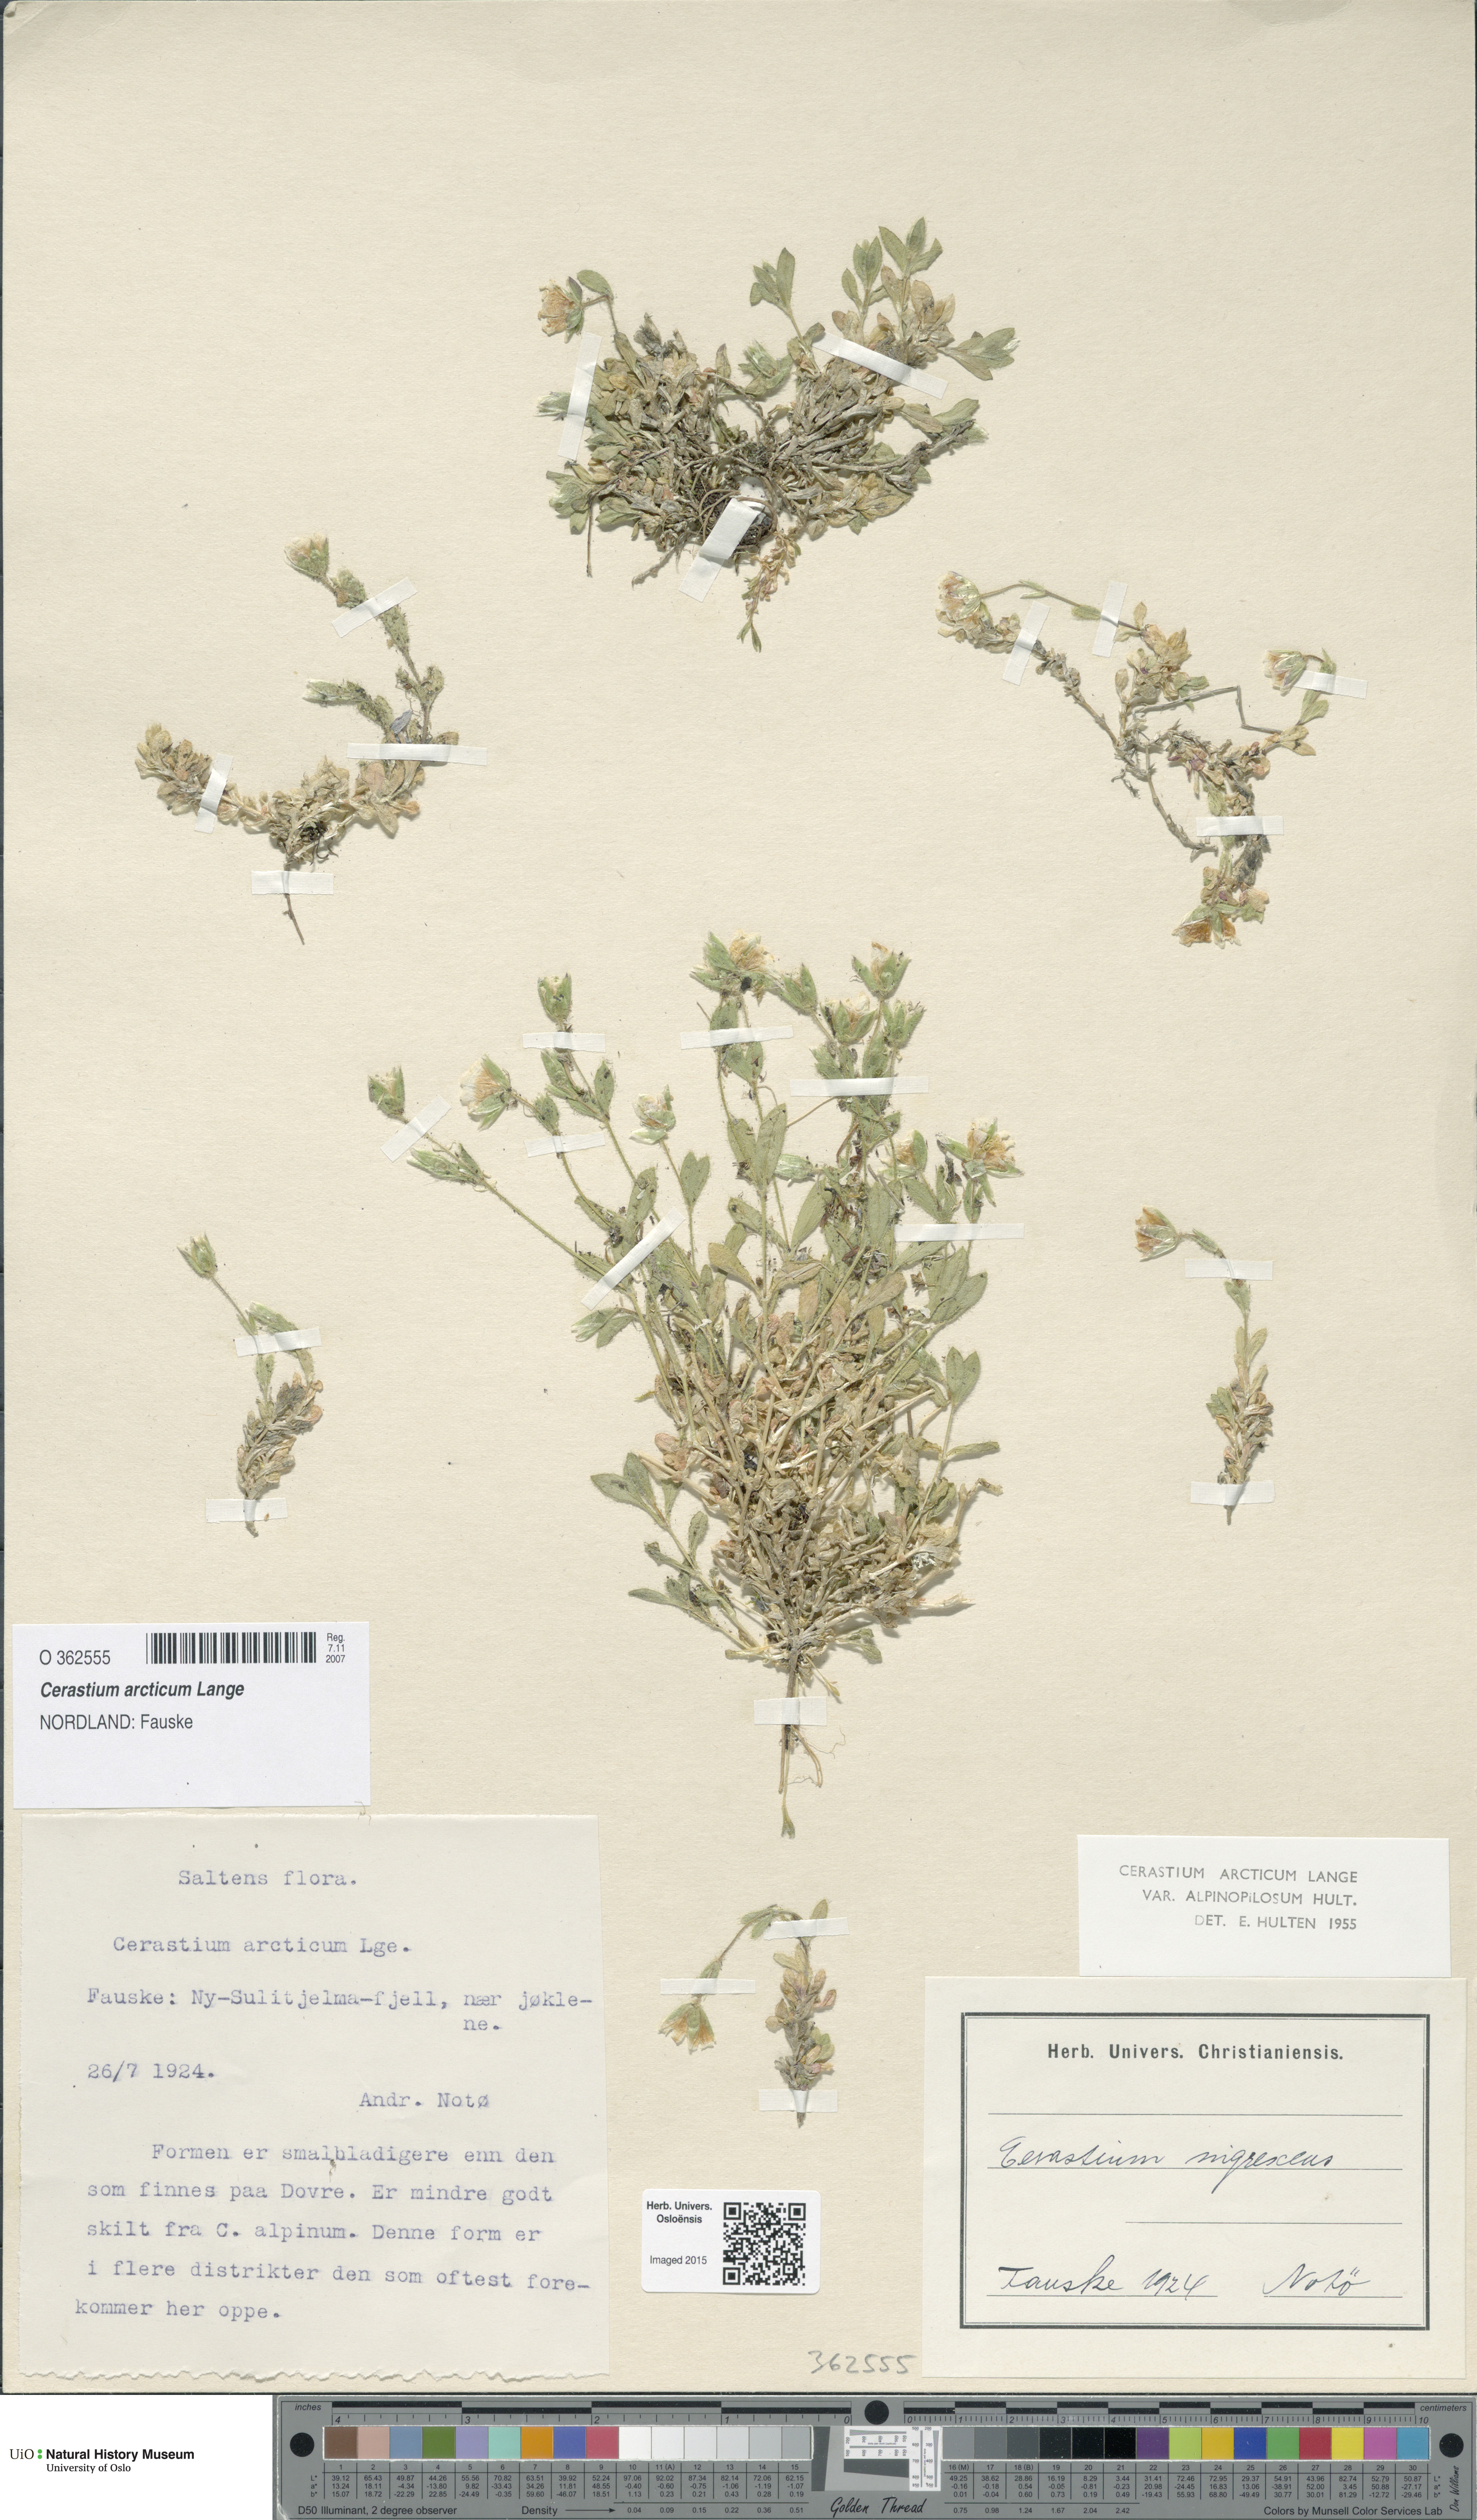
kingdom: Plantae
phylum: Tracheophyta
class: Magnoliopsida
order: Caryophyllales
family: Caryophyllaceae
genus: Cerastium
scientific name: Cerastium arcticum
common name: Arctic mouse-ear
